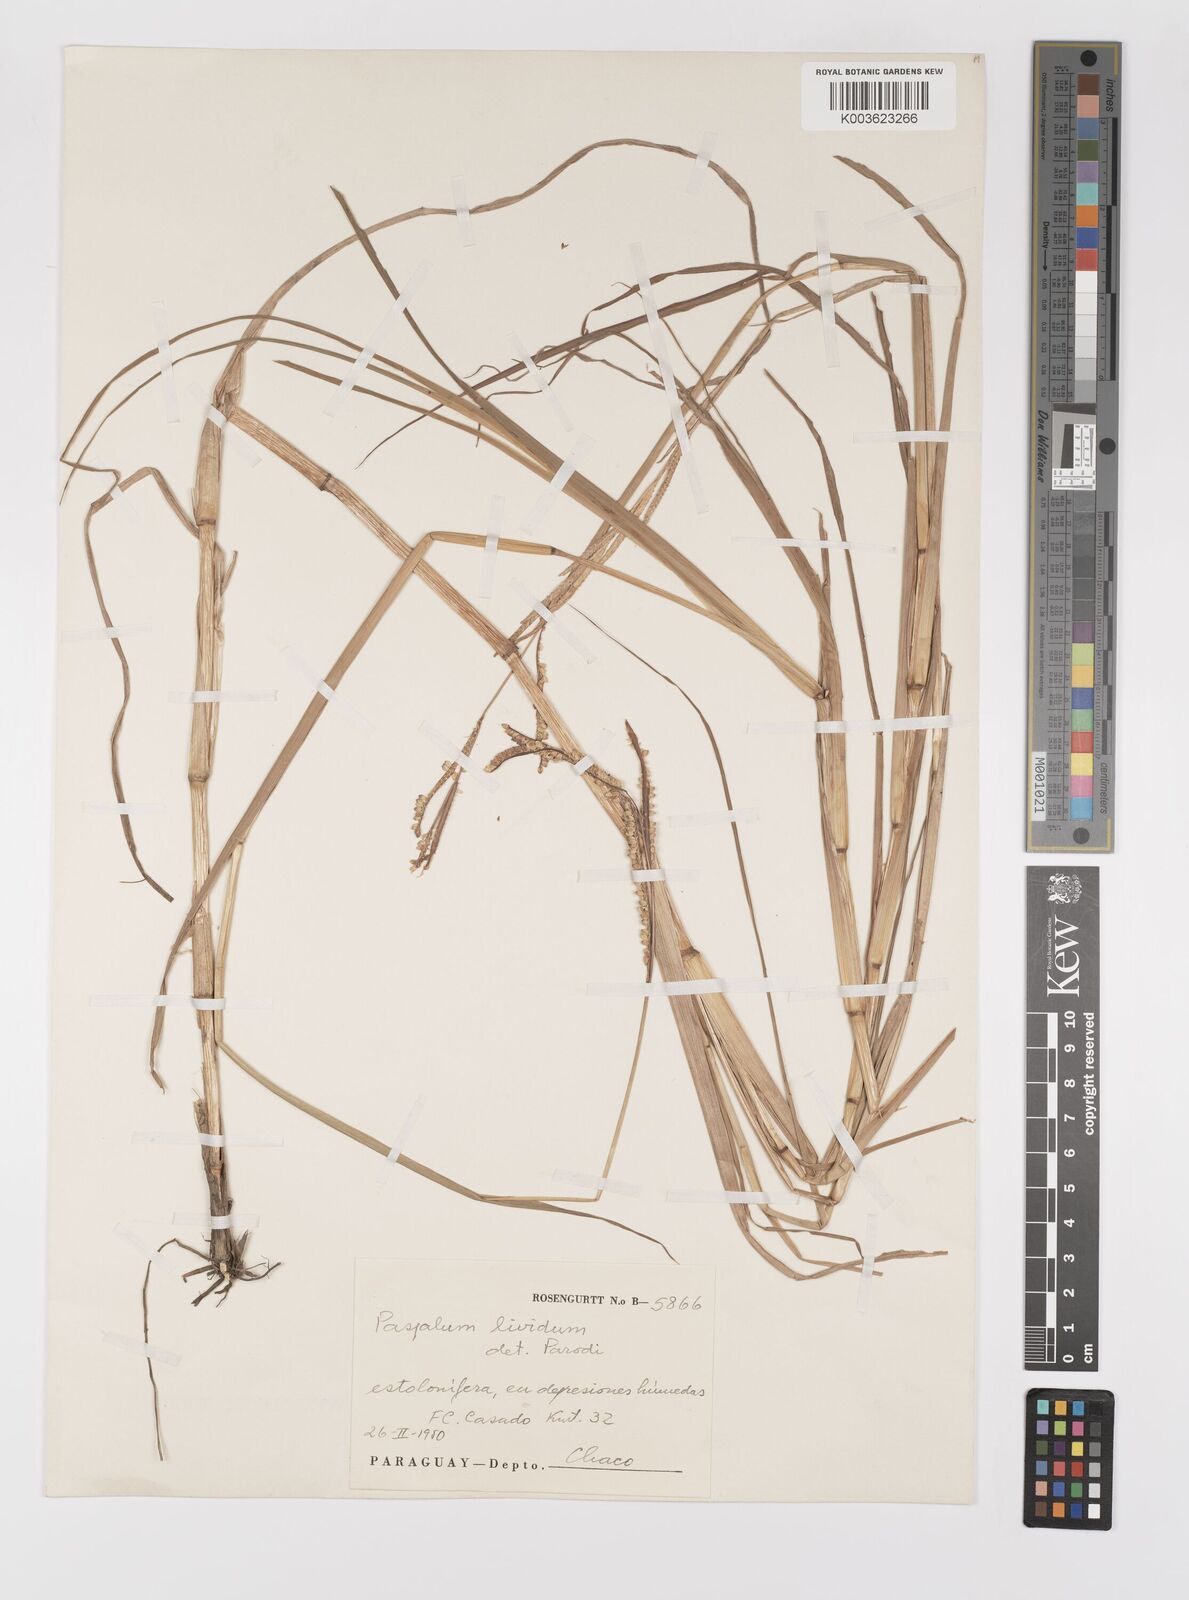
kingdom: Plantae
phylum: Tracheophyta
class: Liliopsida
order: Poales
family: Poaceae
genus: Paspalum
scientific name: Paspalum alcalinum
